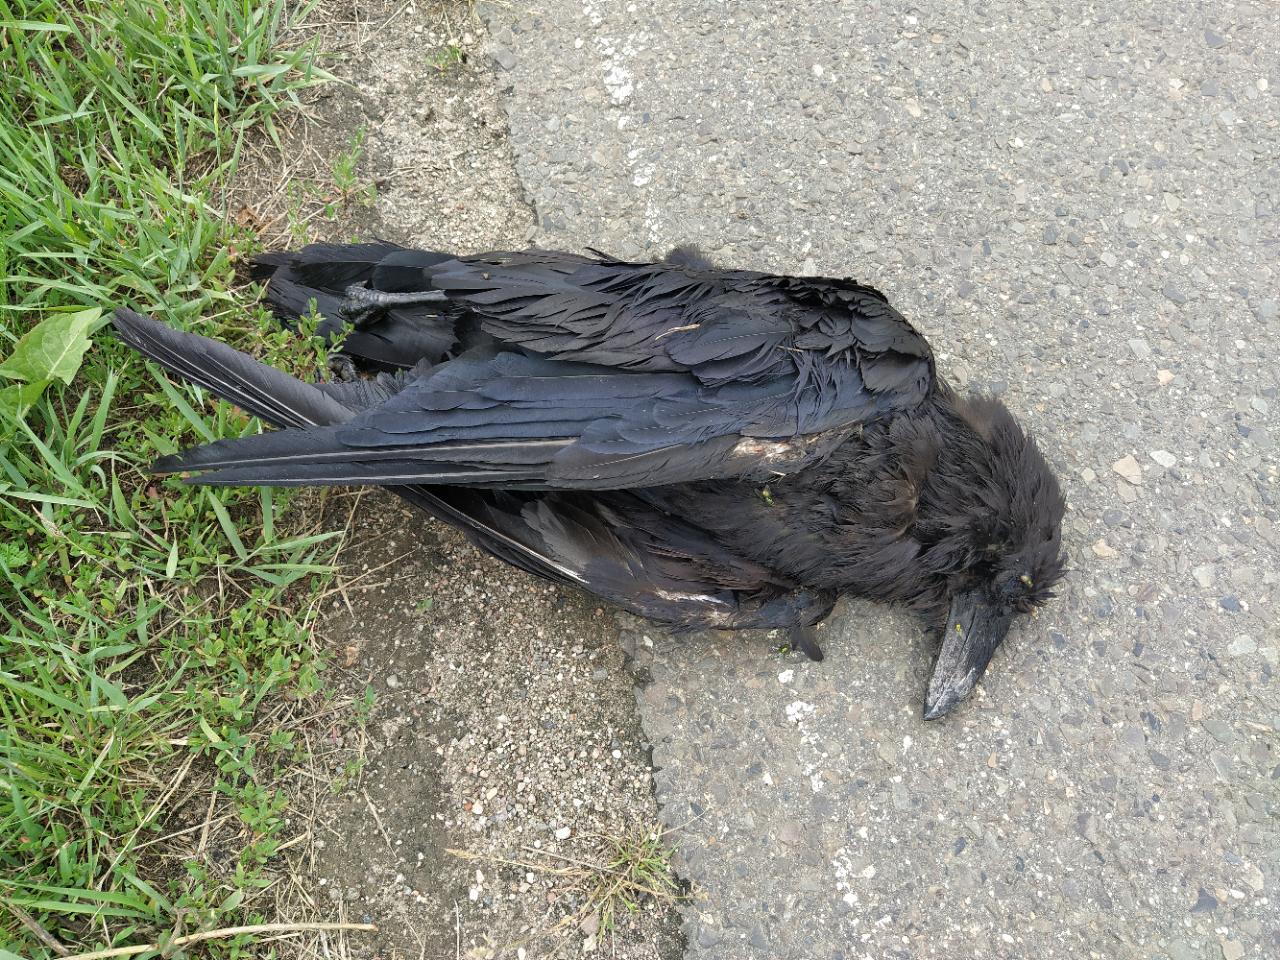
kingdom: Animalia
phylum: Chordata
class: Aves
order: Passeriformes
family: Corvidae
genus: Corvus
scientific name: Corvus corax
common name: Common raven
